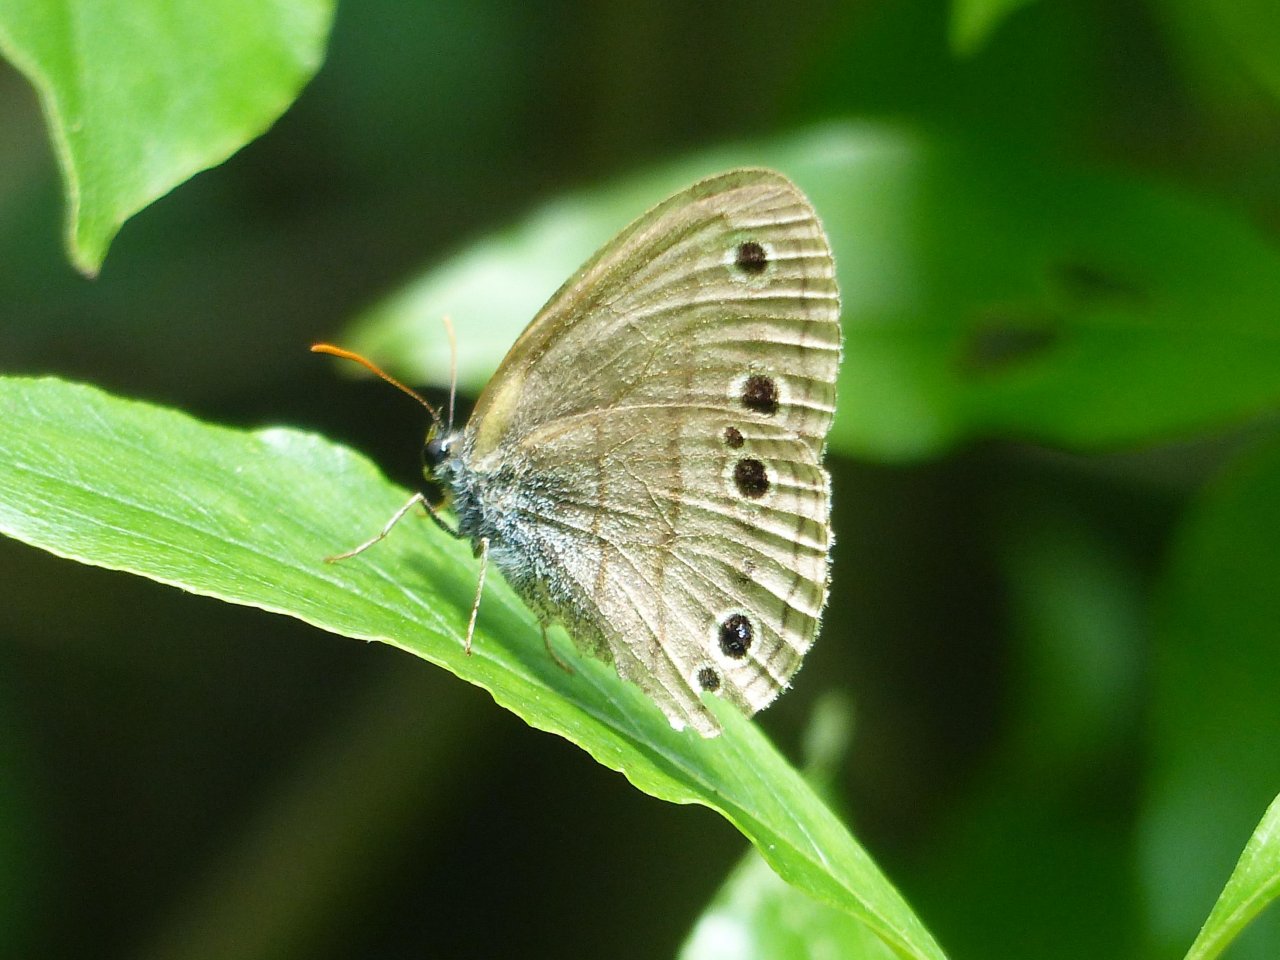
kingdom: Animalia
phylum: Arthropoda
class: Insecta
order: Lepidoptera
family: Nymphalidae
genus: Euptychia
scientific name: Euptychia cymela
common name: Little Wood Satyr
